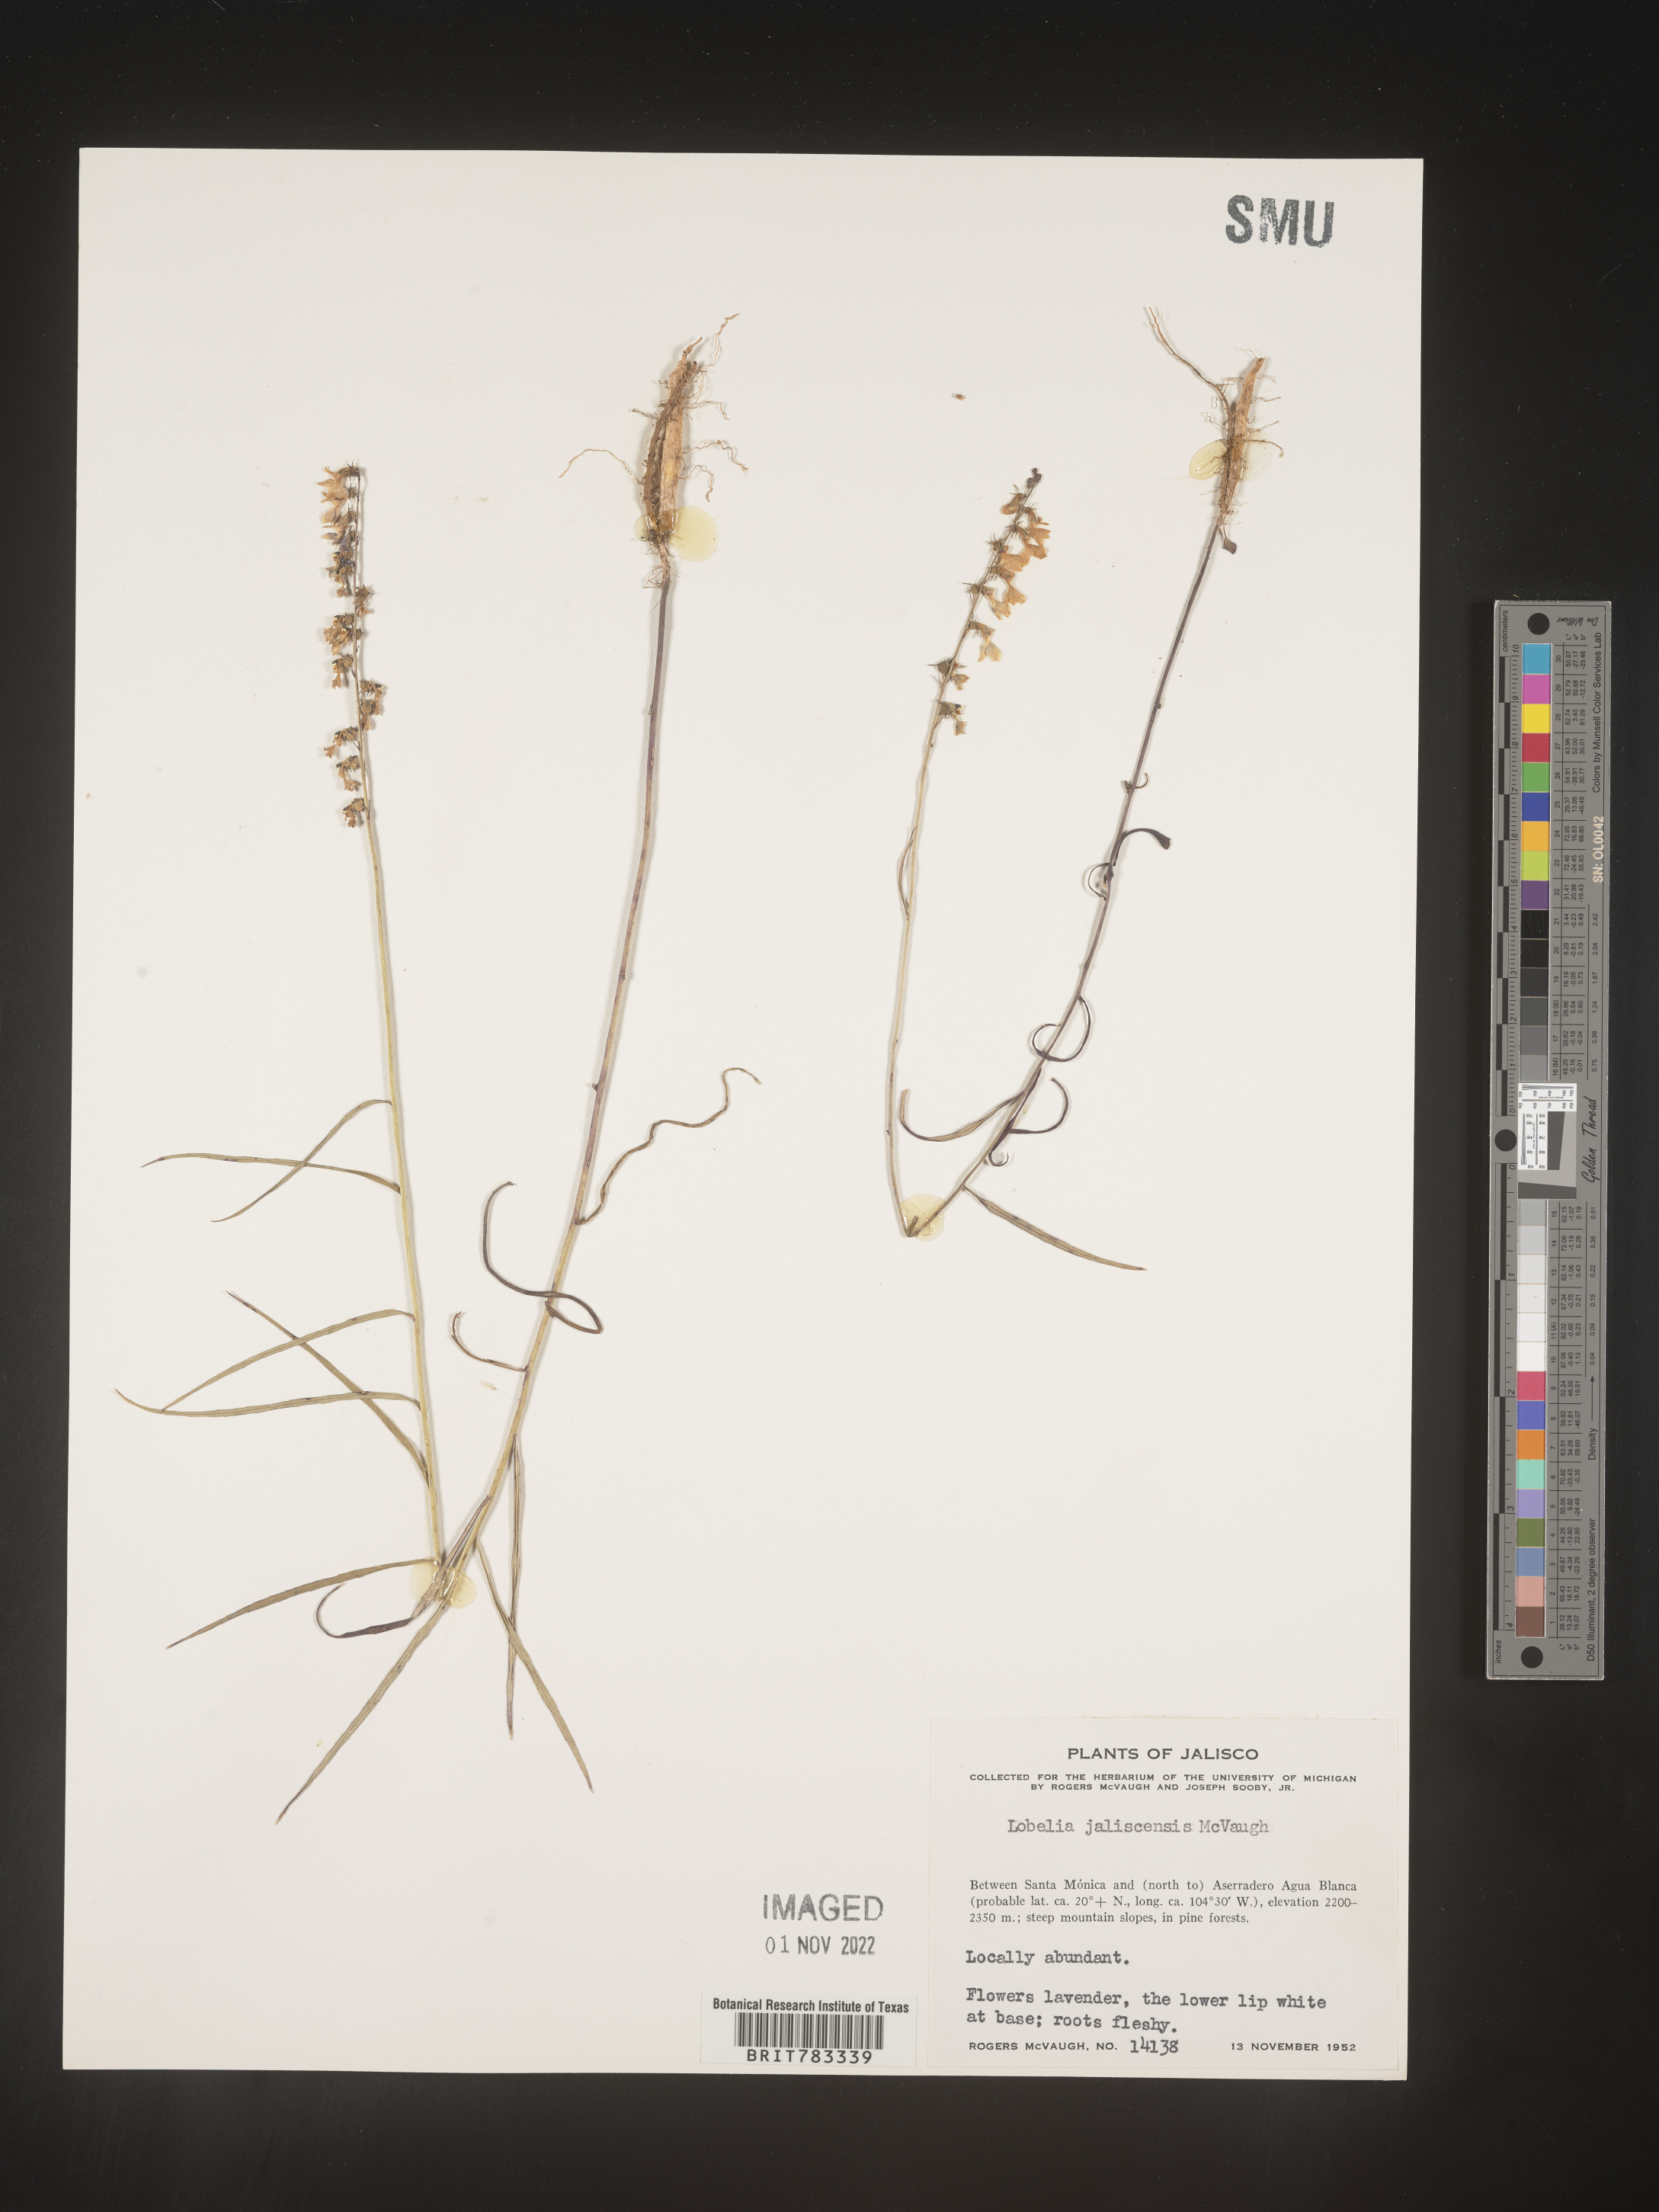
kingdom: Plantae
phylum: Tracheophyta
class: Magnoliopsida
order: Asterales
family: Campanulaceae
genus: Lobelia
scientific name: Lobelia
